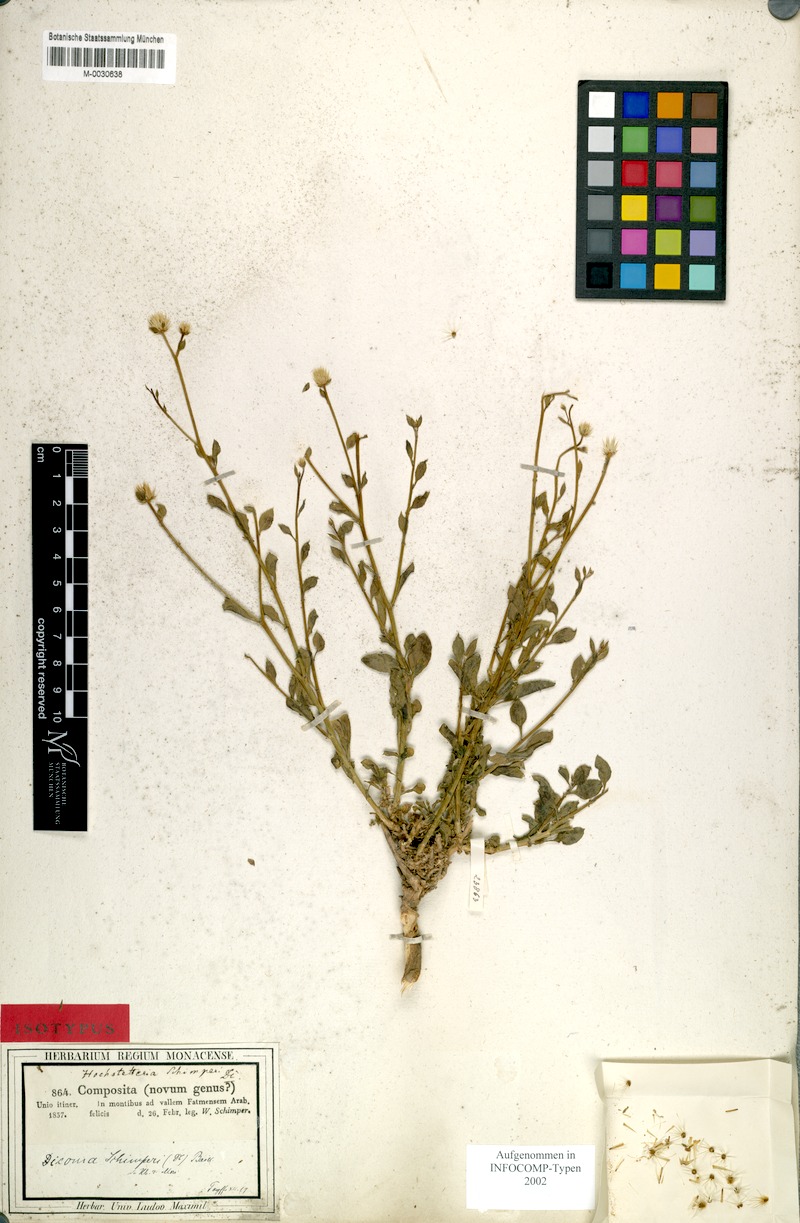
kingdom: Plantae
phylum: Tracheophyta
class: Magnoliopsida
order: Asterales
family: Asteraceae
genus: Dicoma
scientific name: Dicoma schimperi
